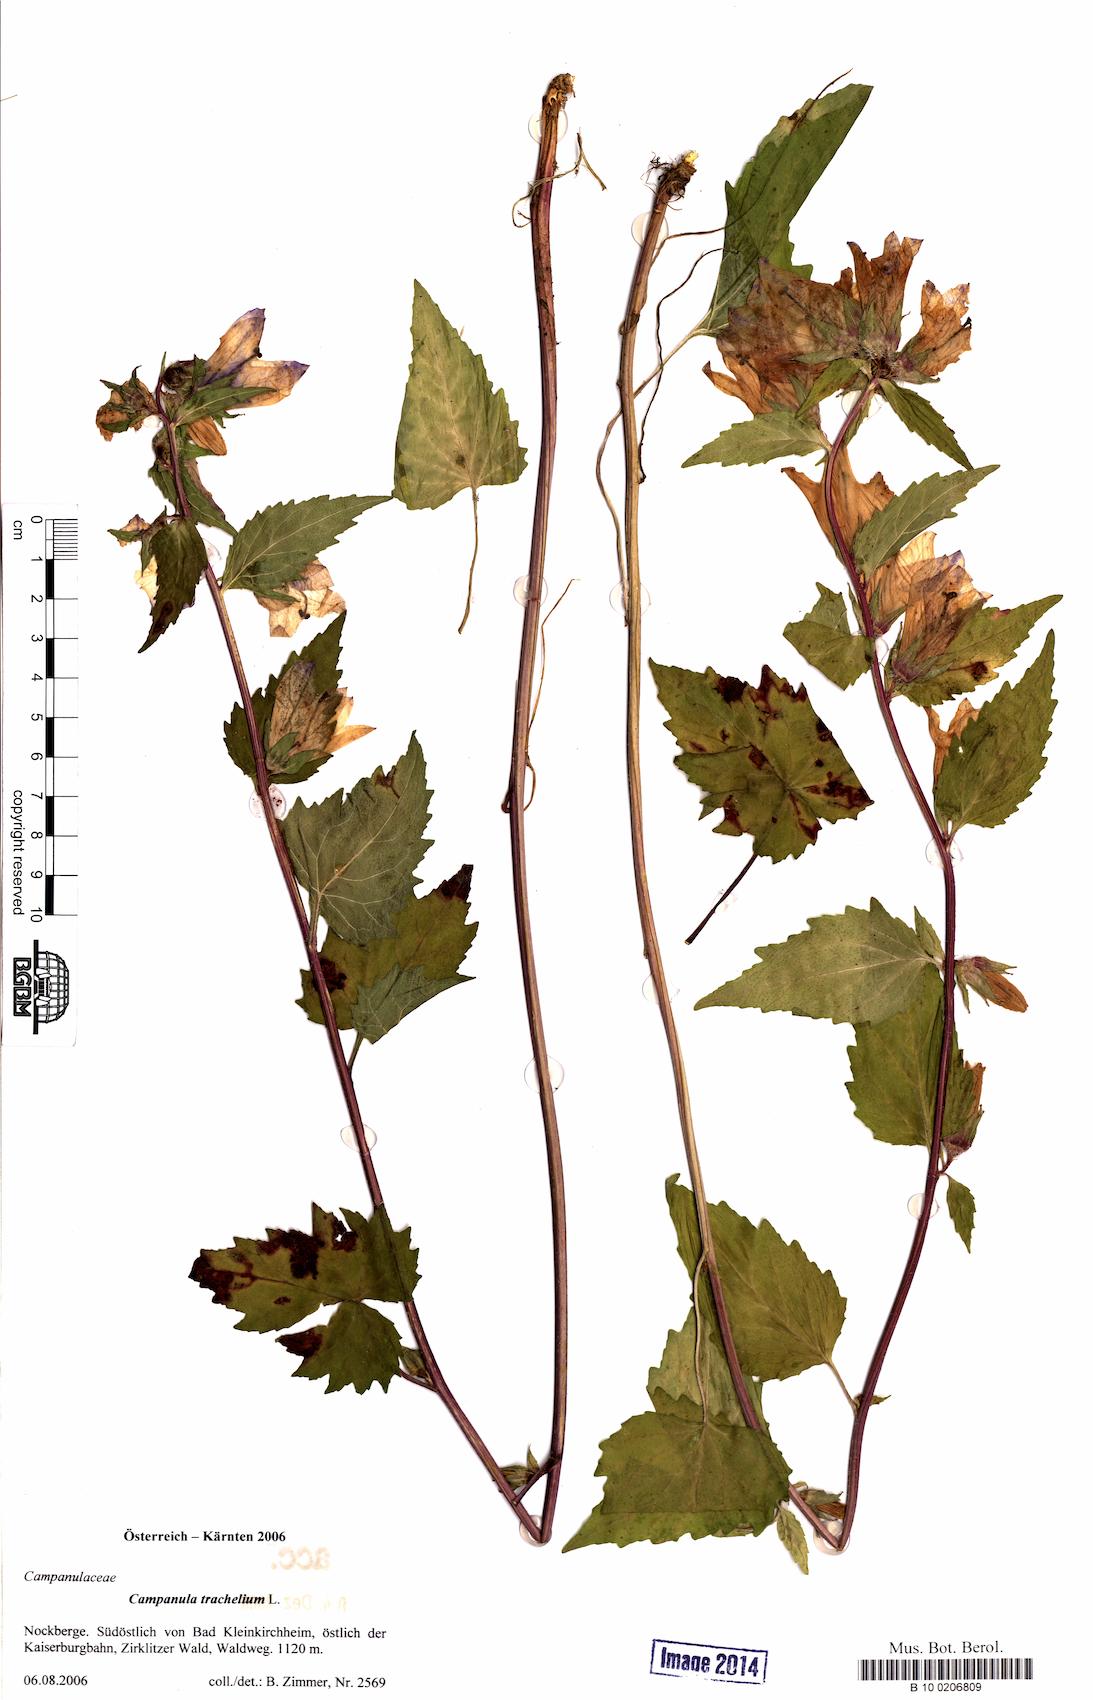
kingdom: Plantae
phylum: Tracheophyta
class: Magnoliopsida
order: Asterales
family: Campanulaceae
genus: Campanula
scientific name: Campanula trachelium
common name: Nettle-leaved bellflower
